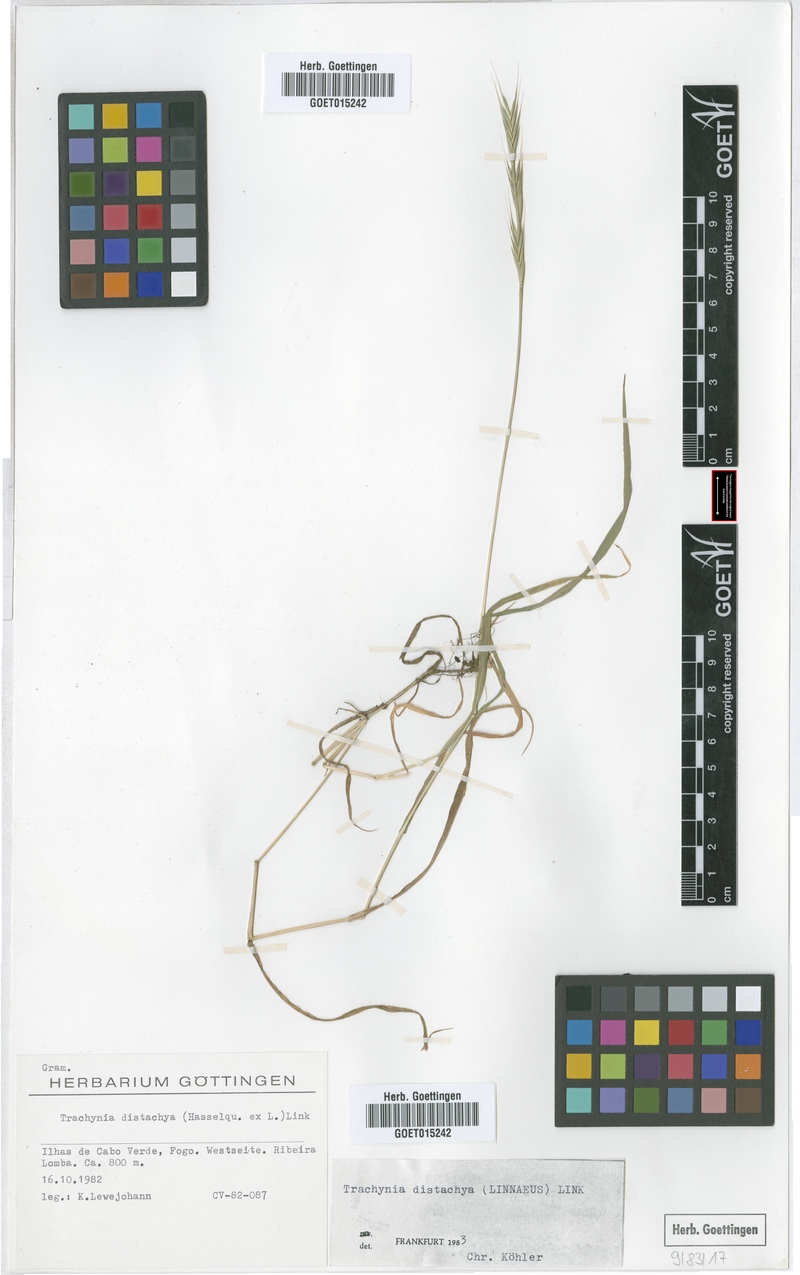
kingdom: Plantae
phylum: Tracheophyta
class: Liliopsida
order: Poales
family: Poaceae
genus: Brachypodium
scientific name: Brachypodium distachyon
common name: Stiff brome
